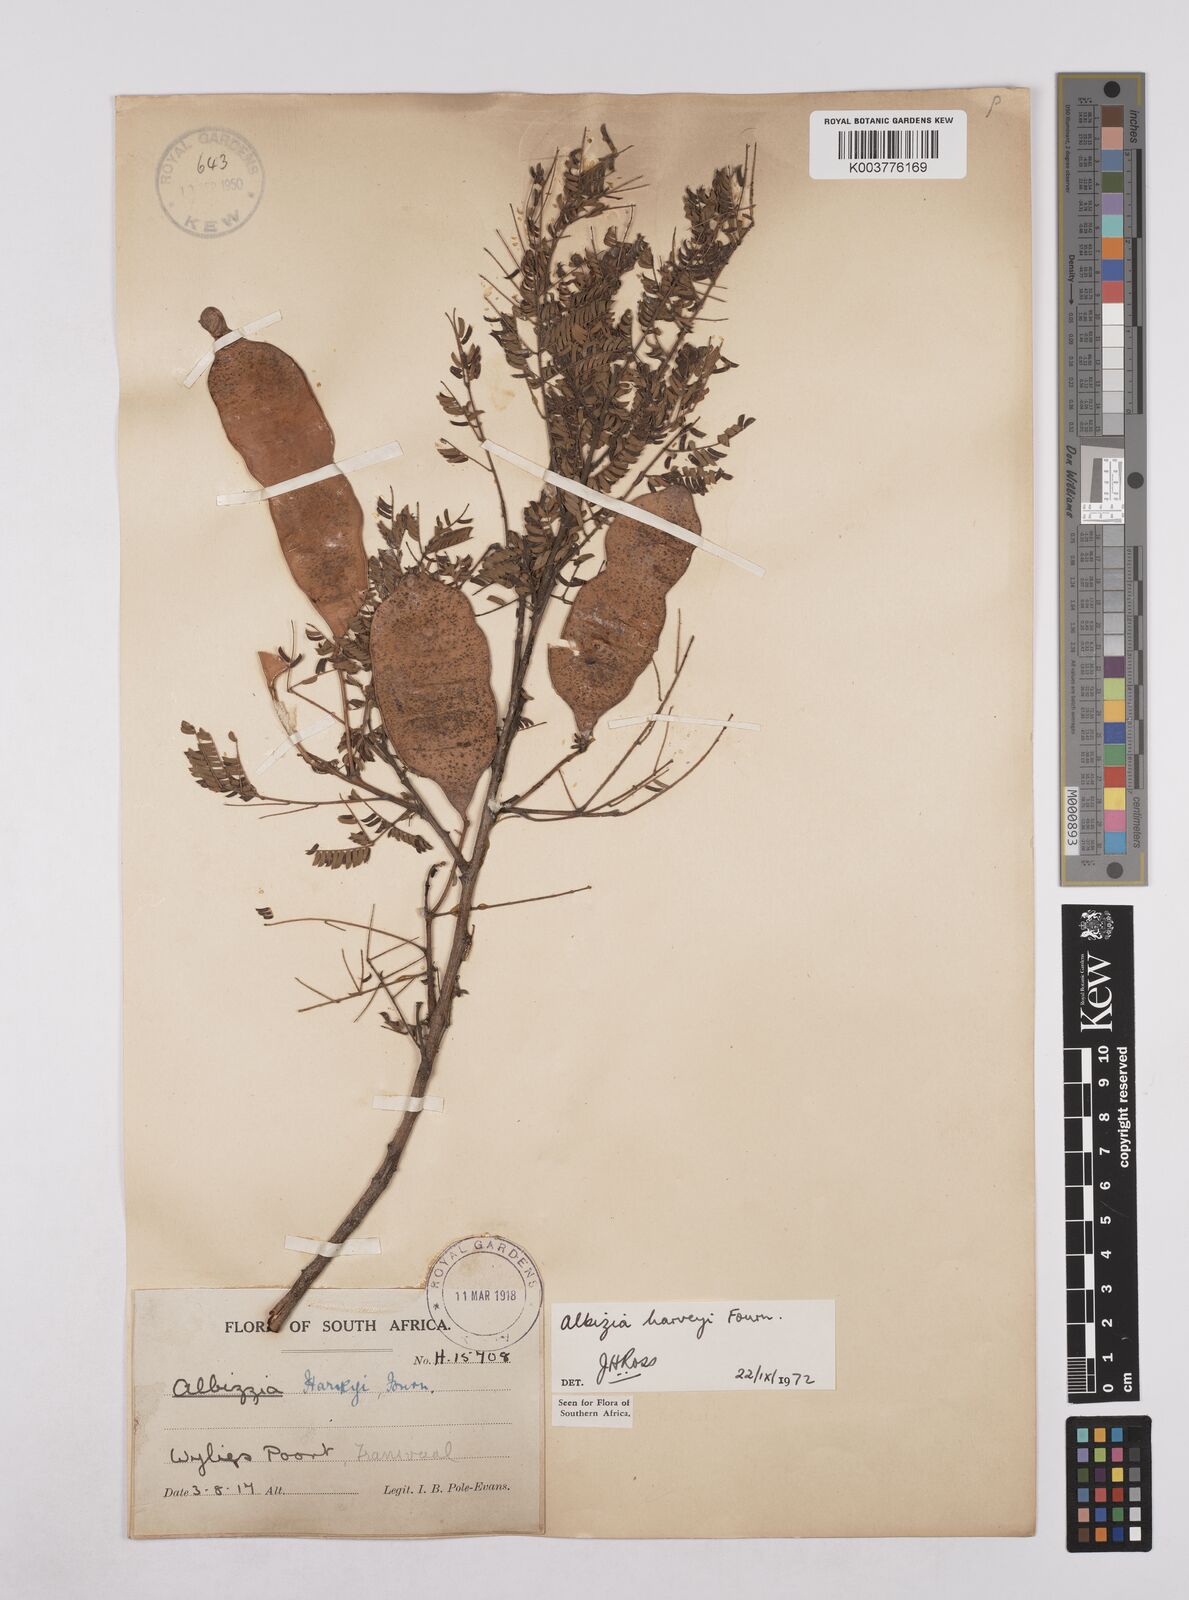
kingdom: Plantae
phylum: Tracheophyta
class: Magnoliopsida
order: Fabales
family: Fabaceae
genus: Albizia
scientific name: Albizia harveyi
